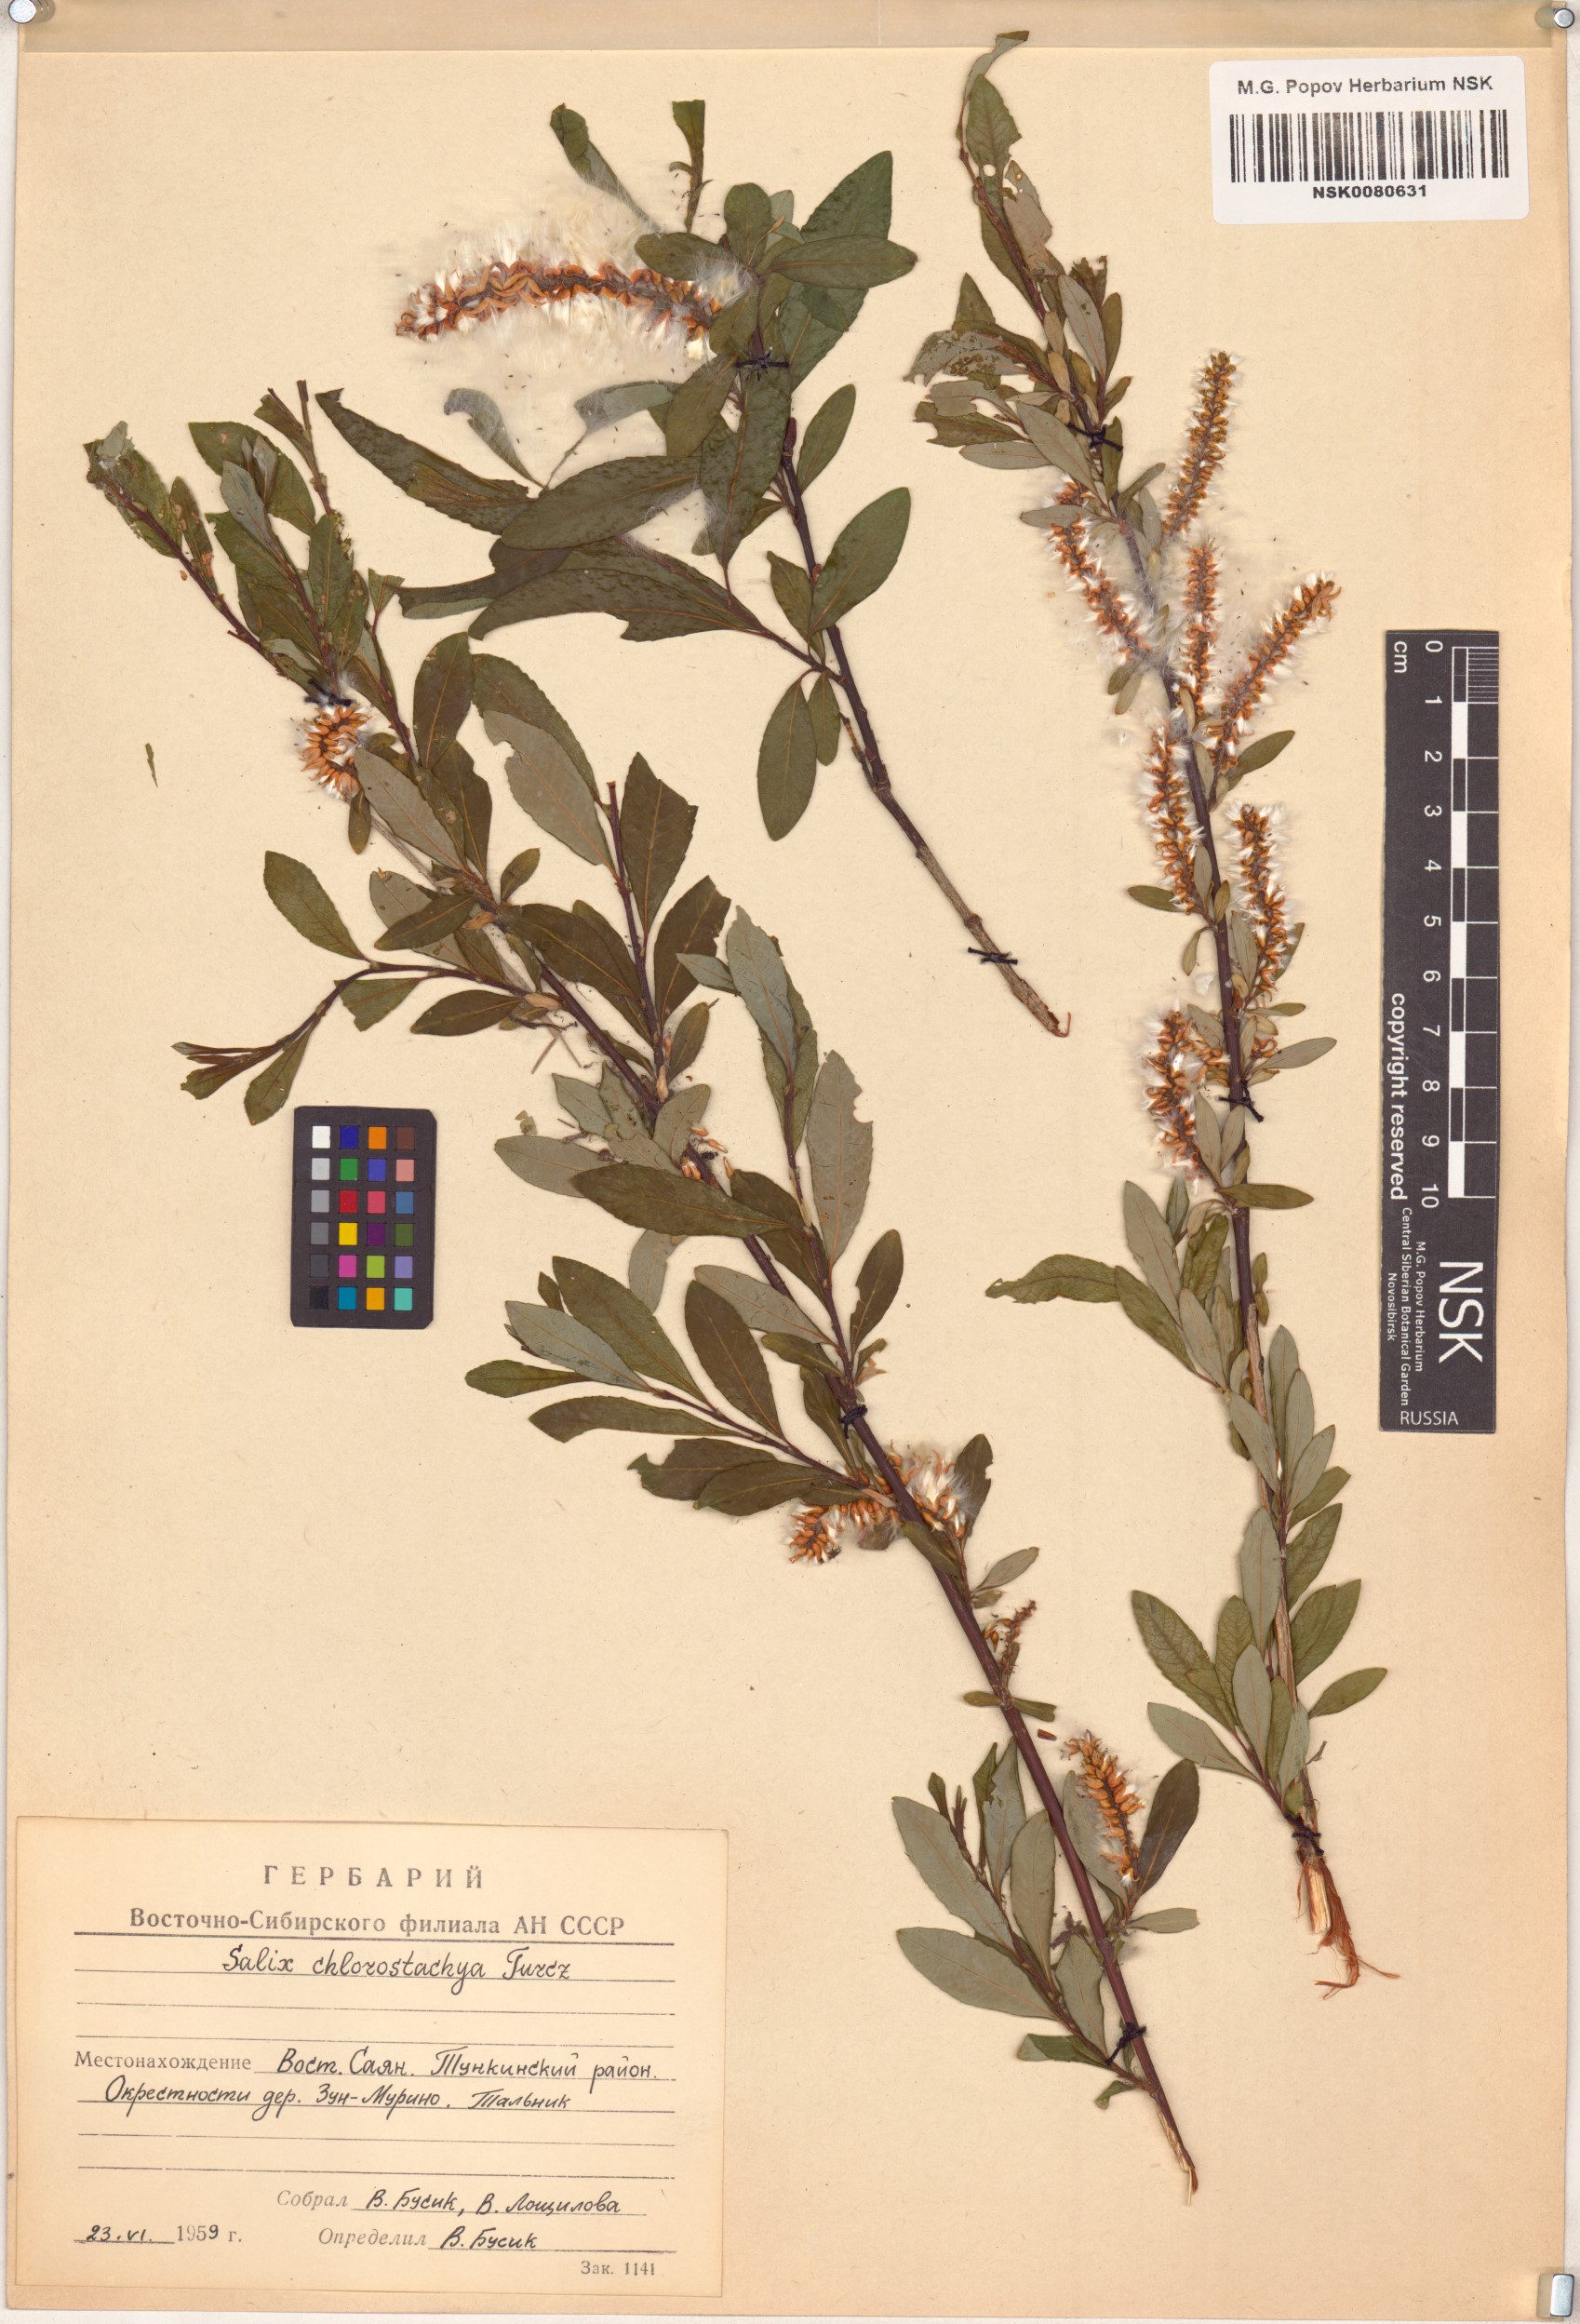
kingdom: Plantae
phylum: Tracheophyta
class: Magnoliopsida
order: Malpighiales
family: Salicaceae
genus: Salix
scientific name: Salix rhamnifolia
